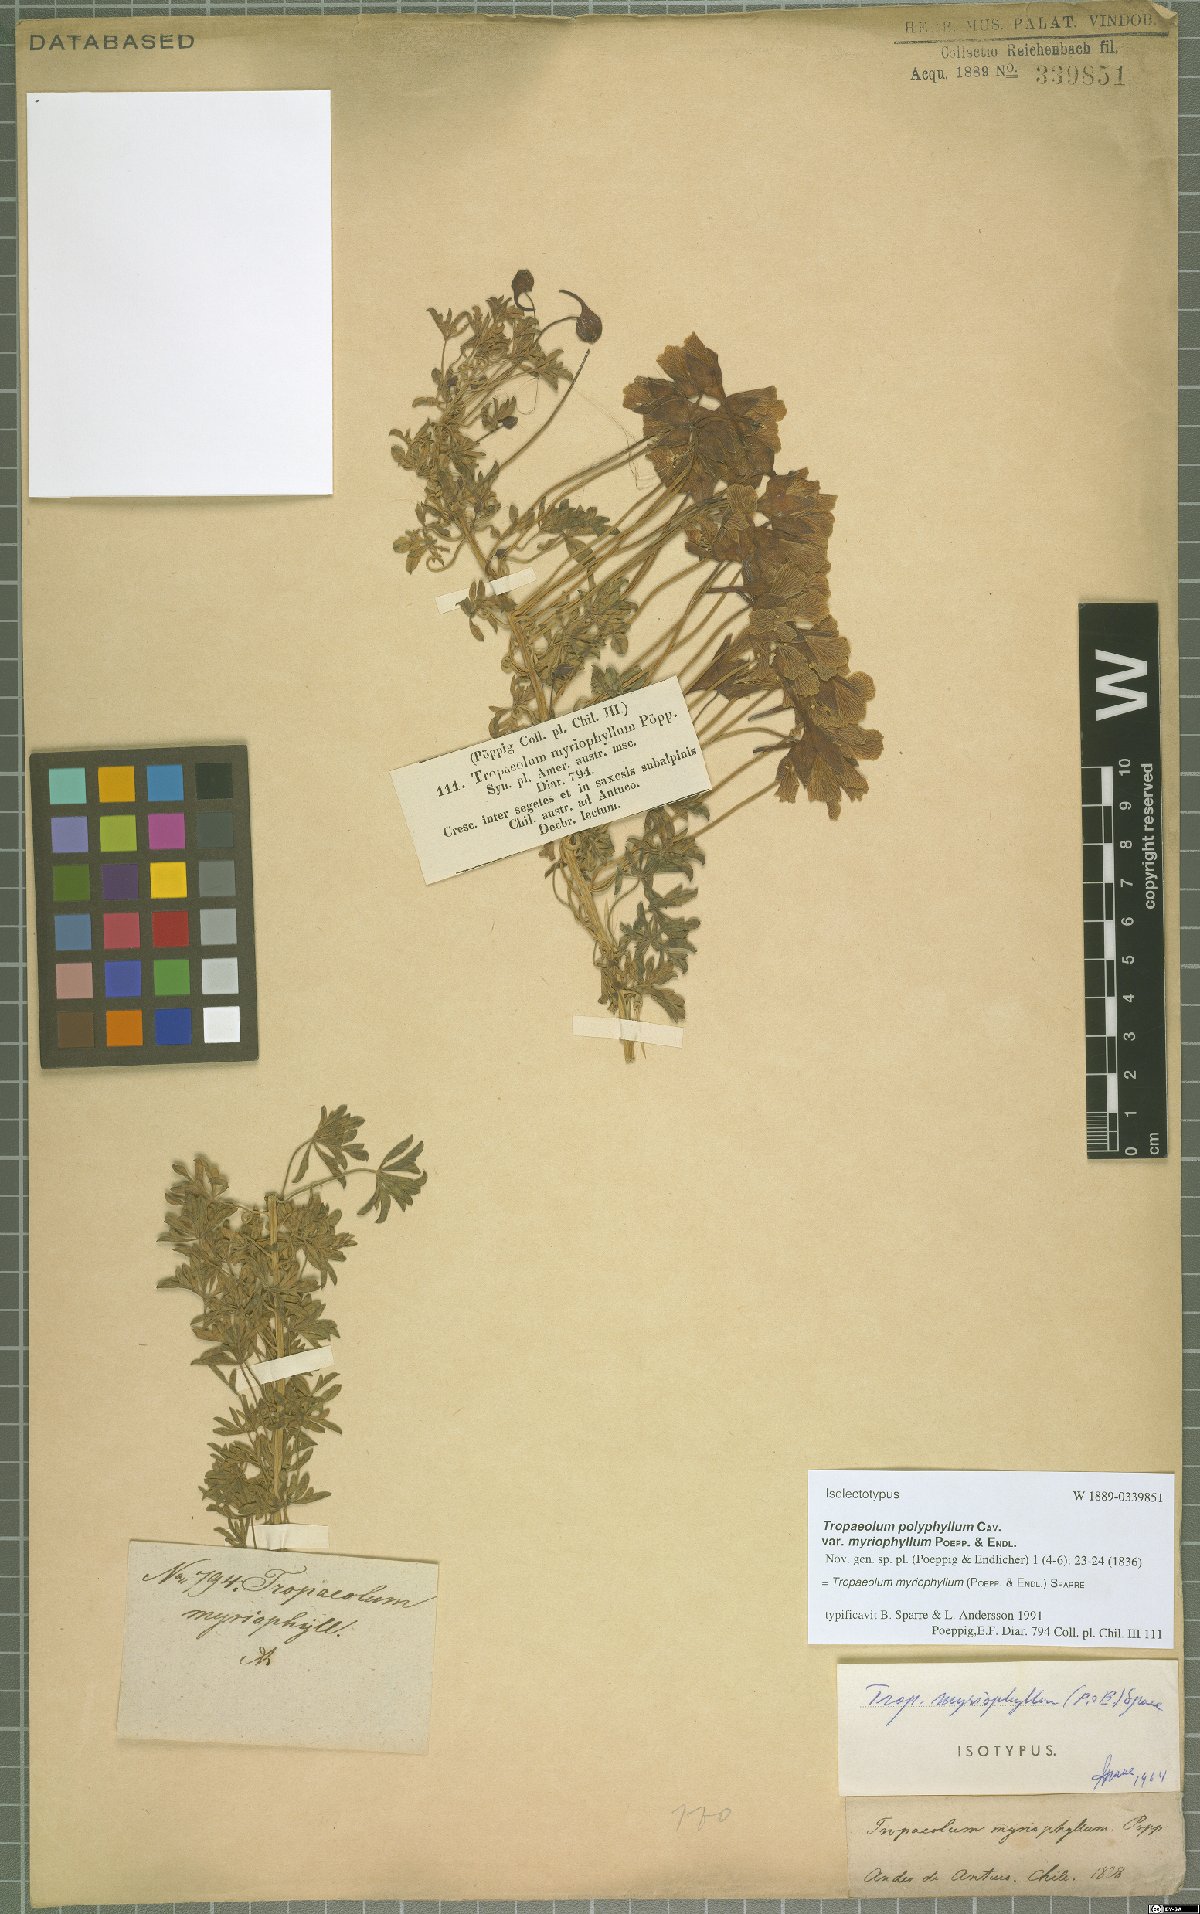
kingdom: Plantae
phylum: Tracheophyta
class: Magnoliopsida
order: Brassicales
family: Tropaeolaceae
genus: Tropaeolum
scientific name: Tropaeolum myriophyllum
